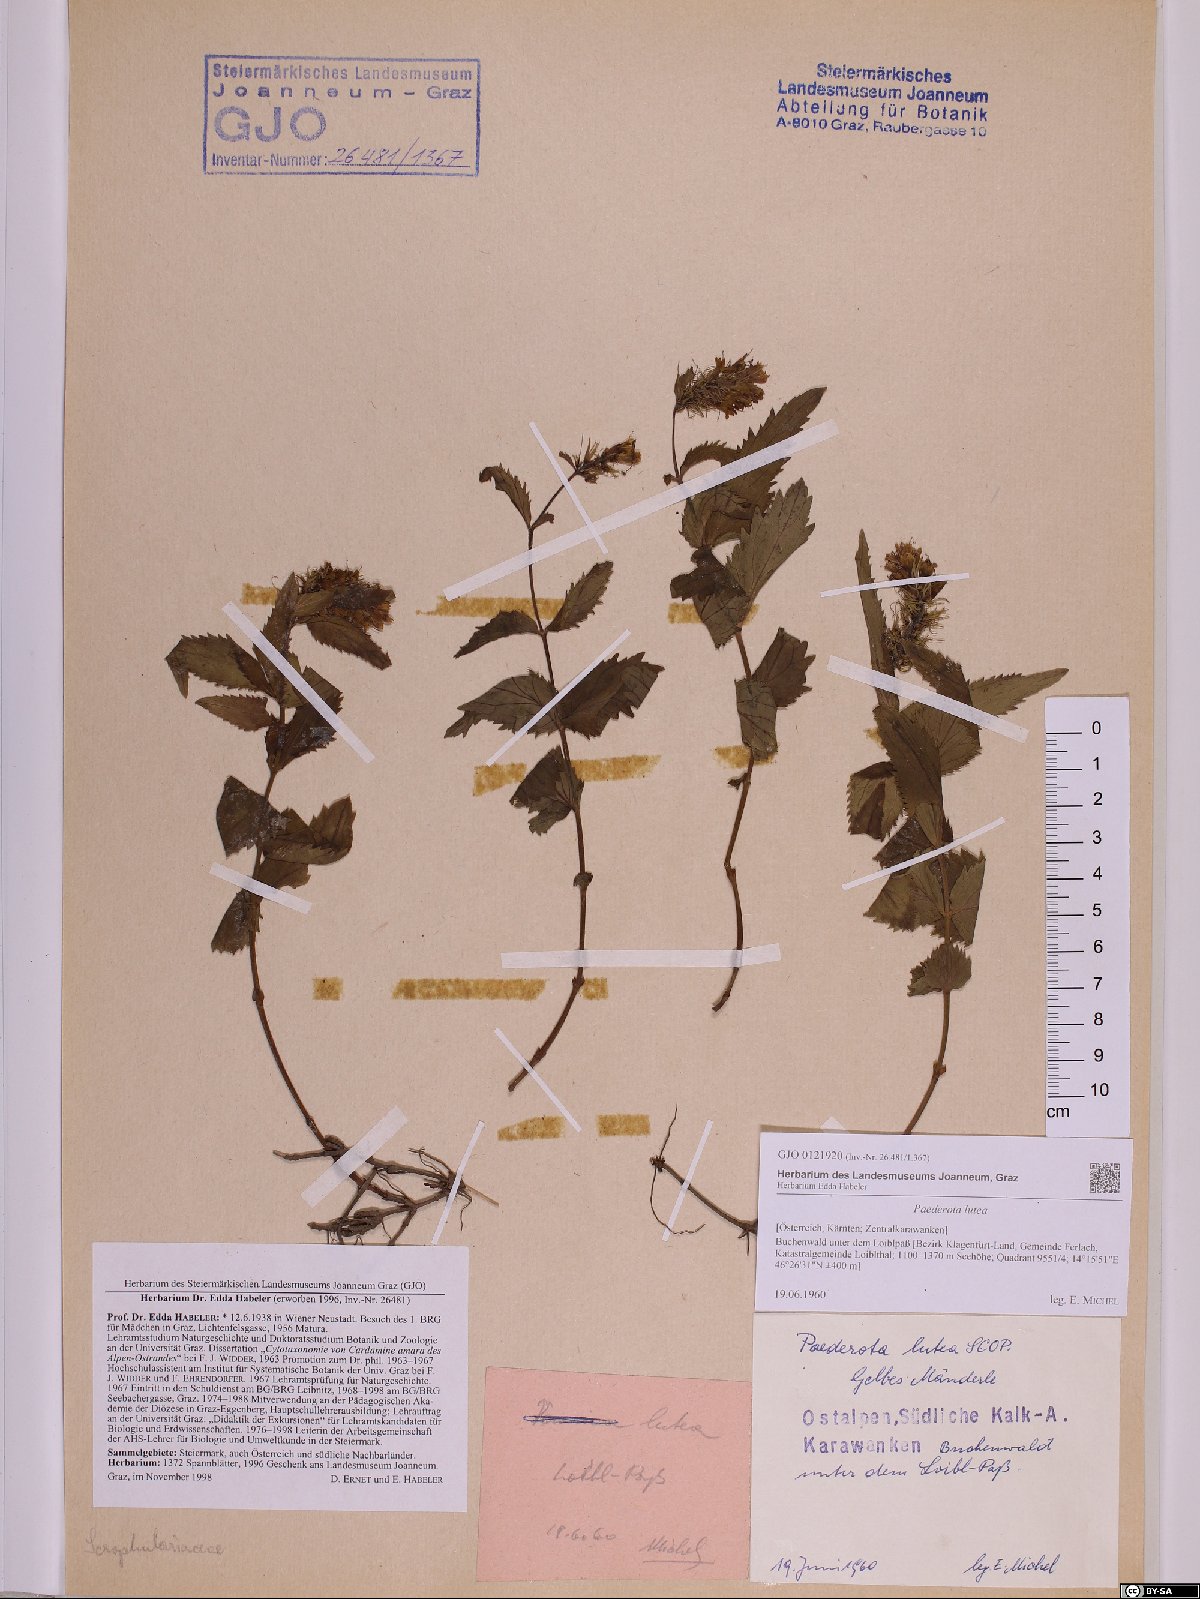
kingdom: Plantae
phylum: Tracheophyta
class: Magnoliopsida
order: Lamiales
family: Plantaginaceae
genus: Paederota
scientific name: Paederota lutea
